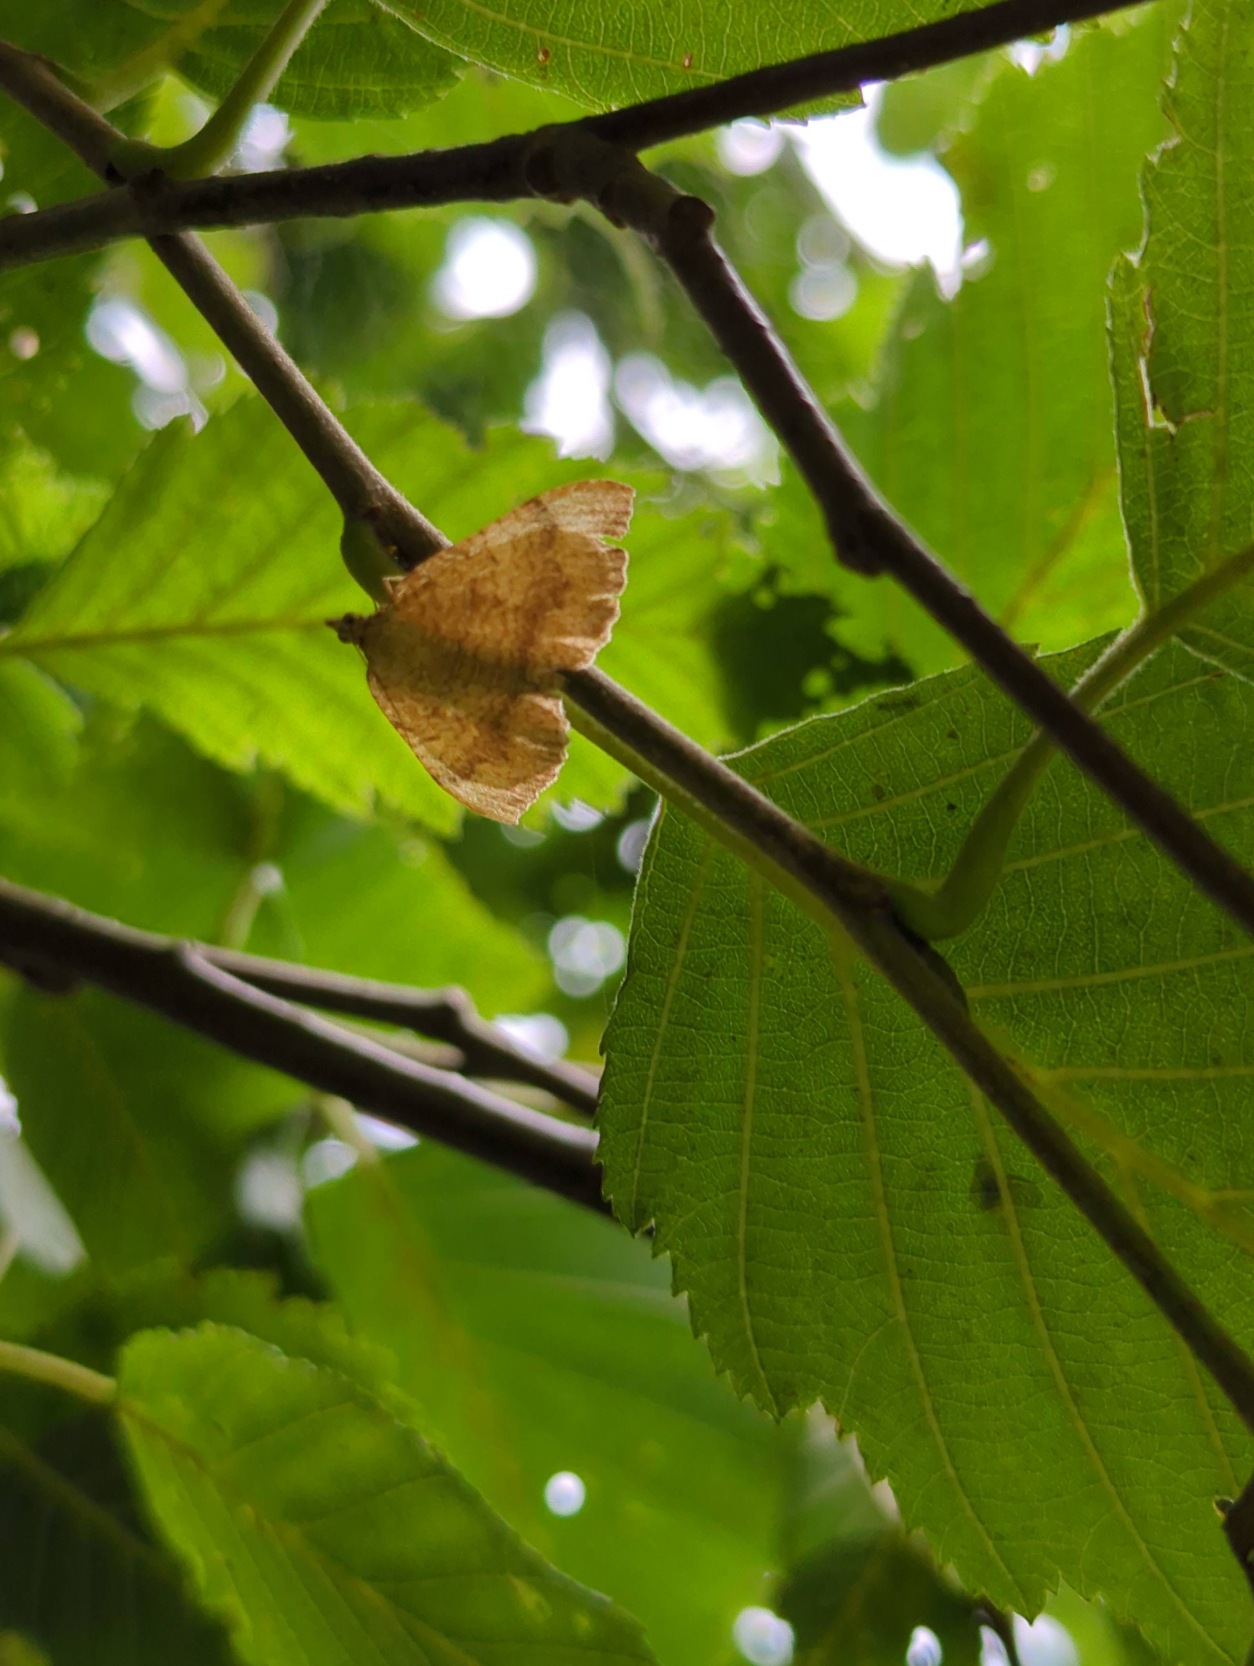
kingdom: Animalia
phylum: Arthropoda
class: Insecta
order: Lepidoptera
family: Geometridae
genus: Camptogramma
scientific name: Camptogramma bilineata
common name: Okkergul bladmåler
